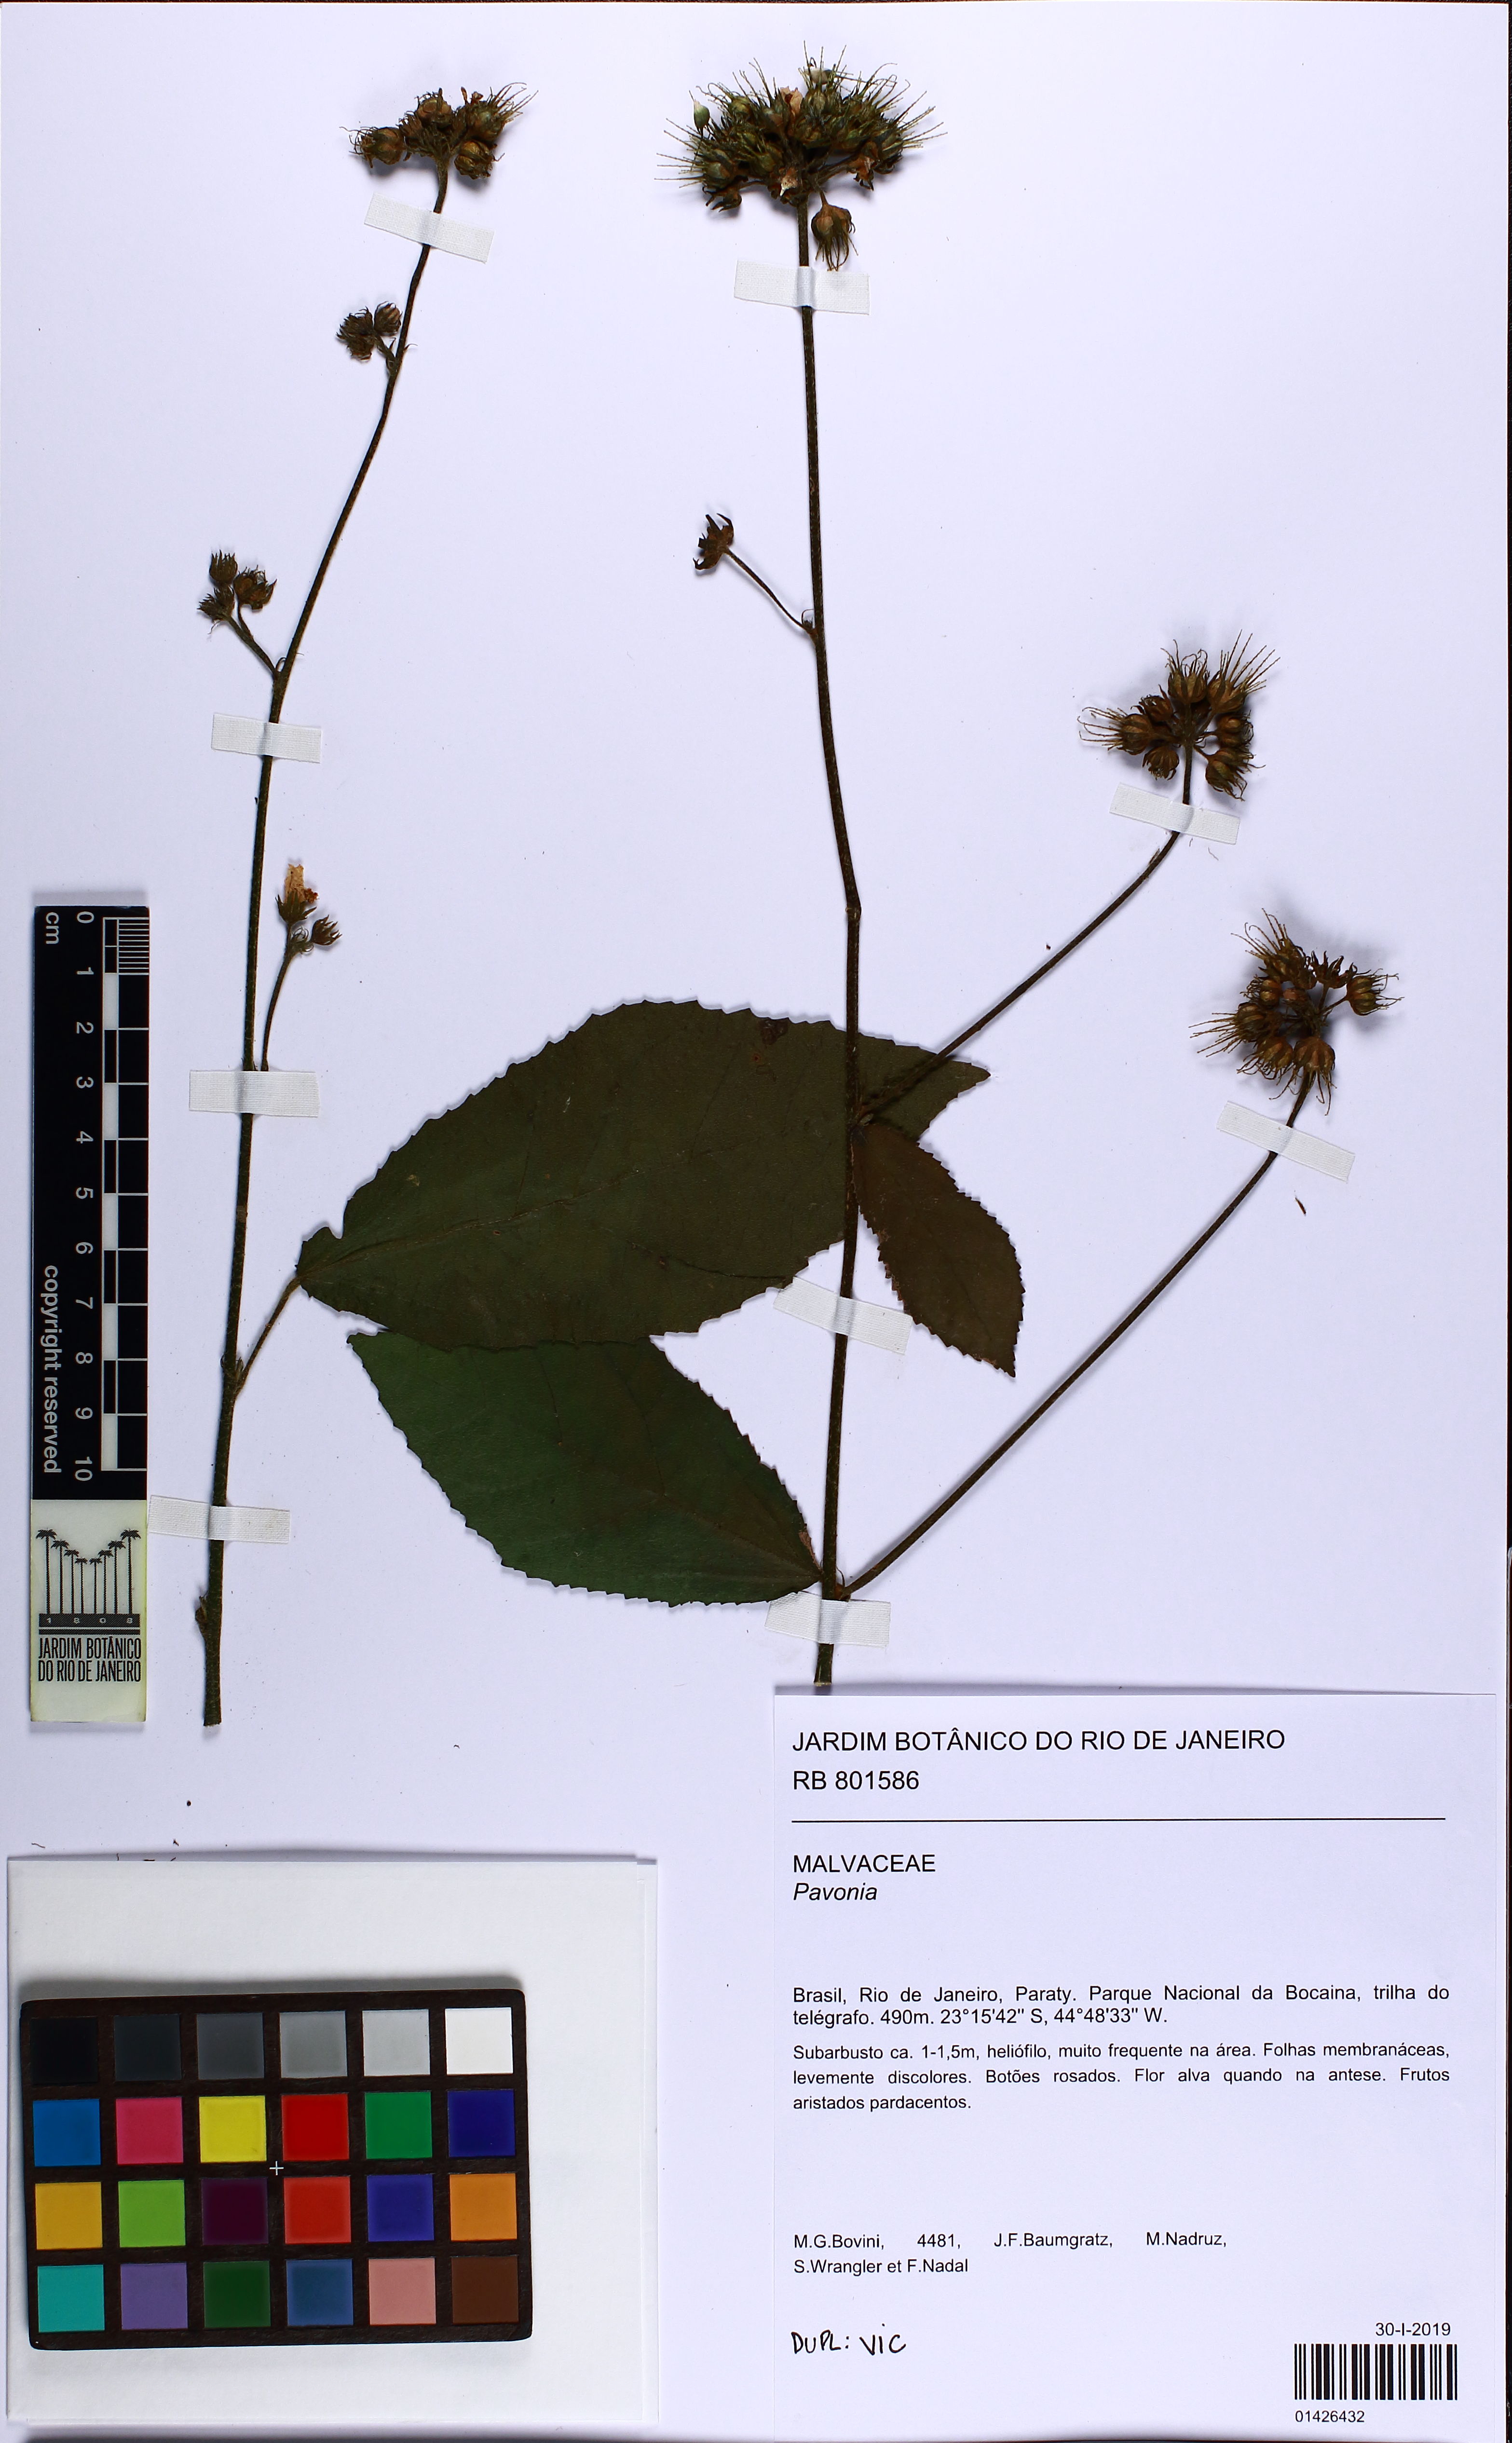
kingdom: Plantae
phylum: Tracheophyta
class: Magnoliopsida
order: Malvales
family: Malvaceae
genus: Pavonia
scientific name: Pavonia nemoralis
